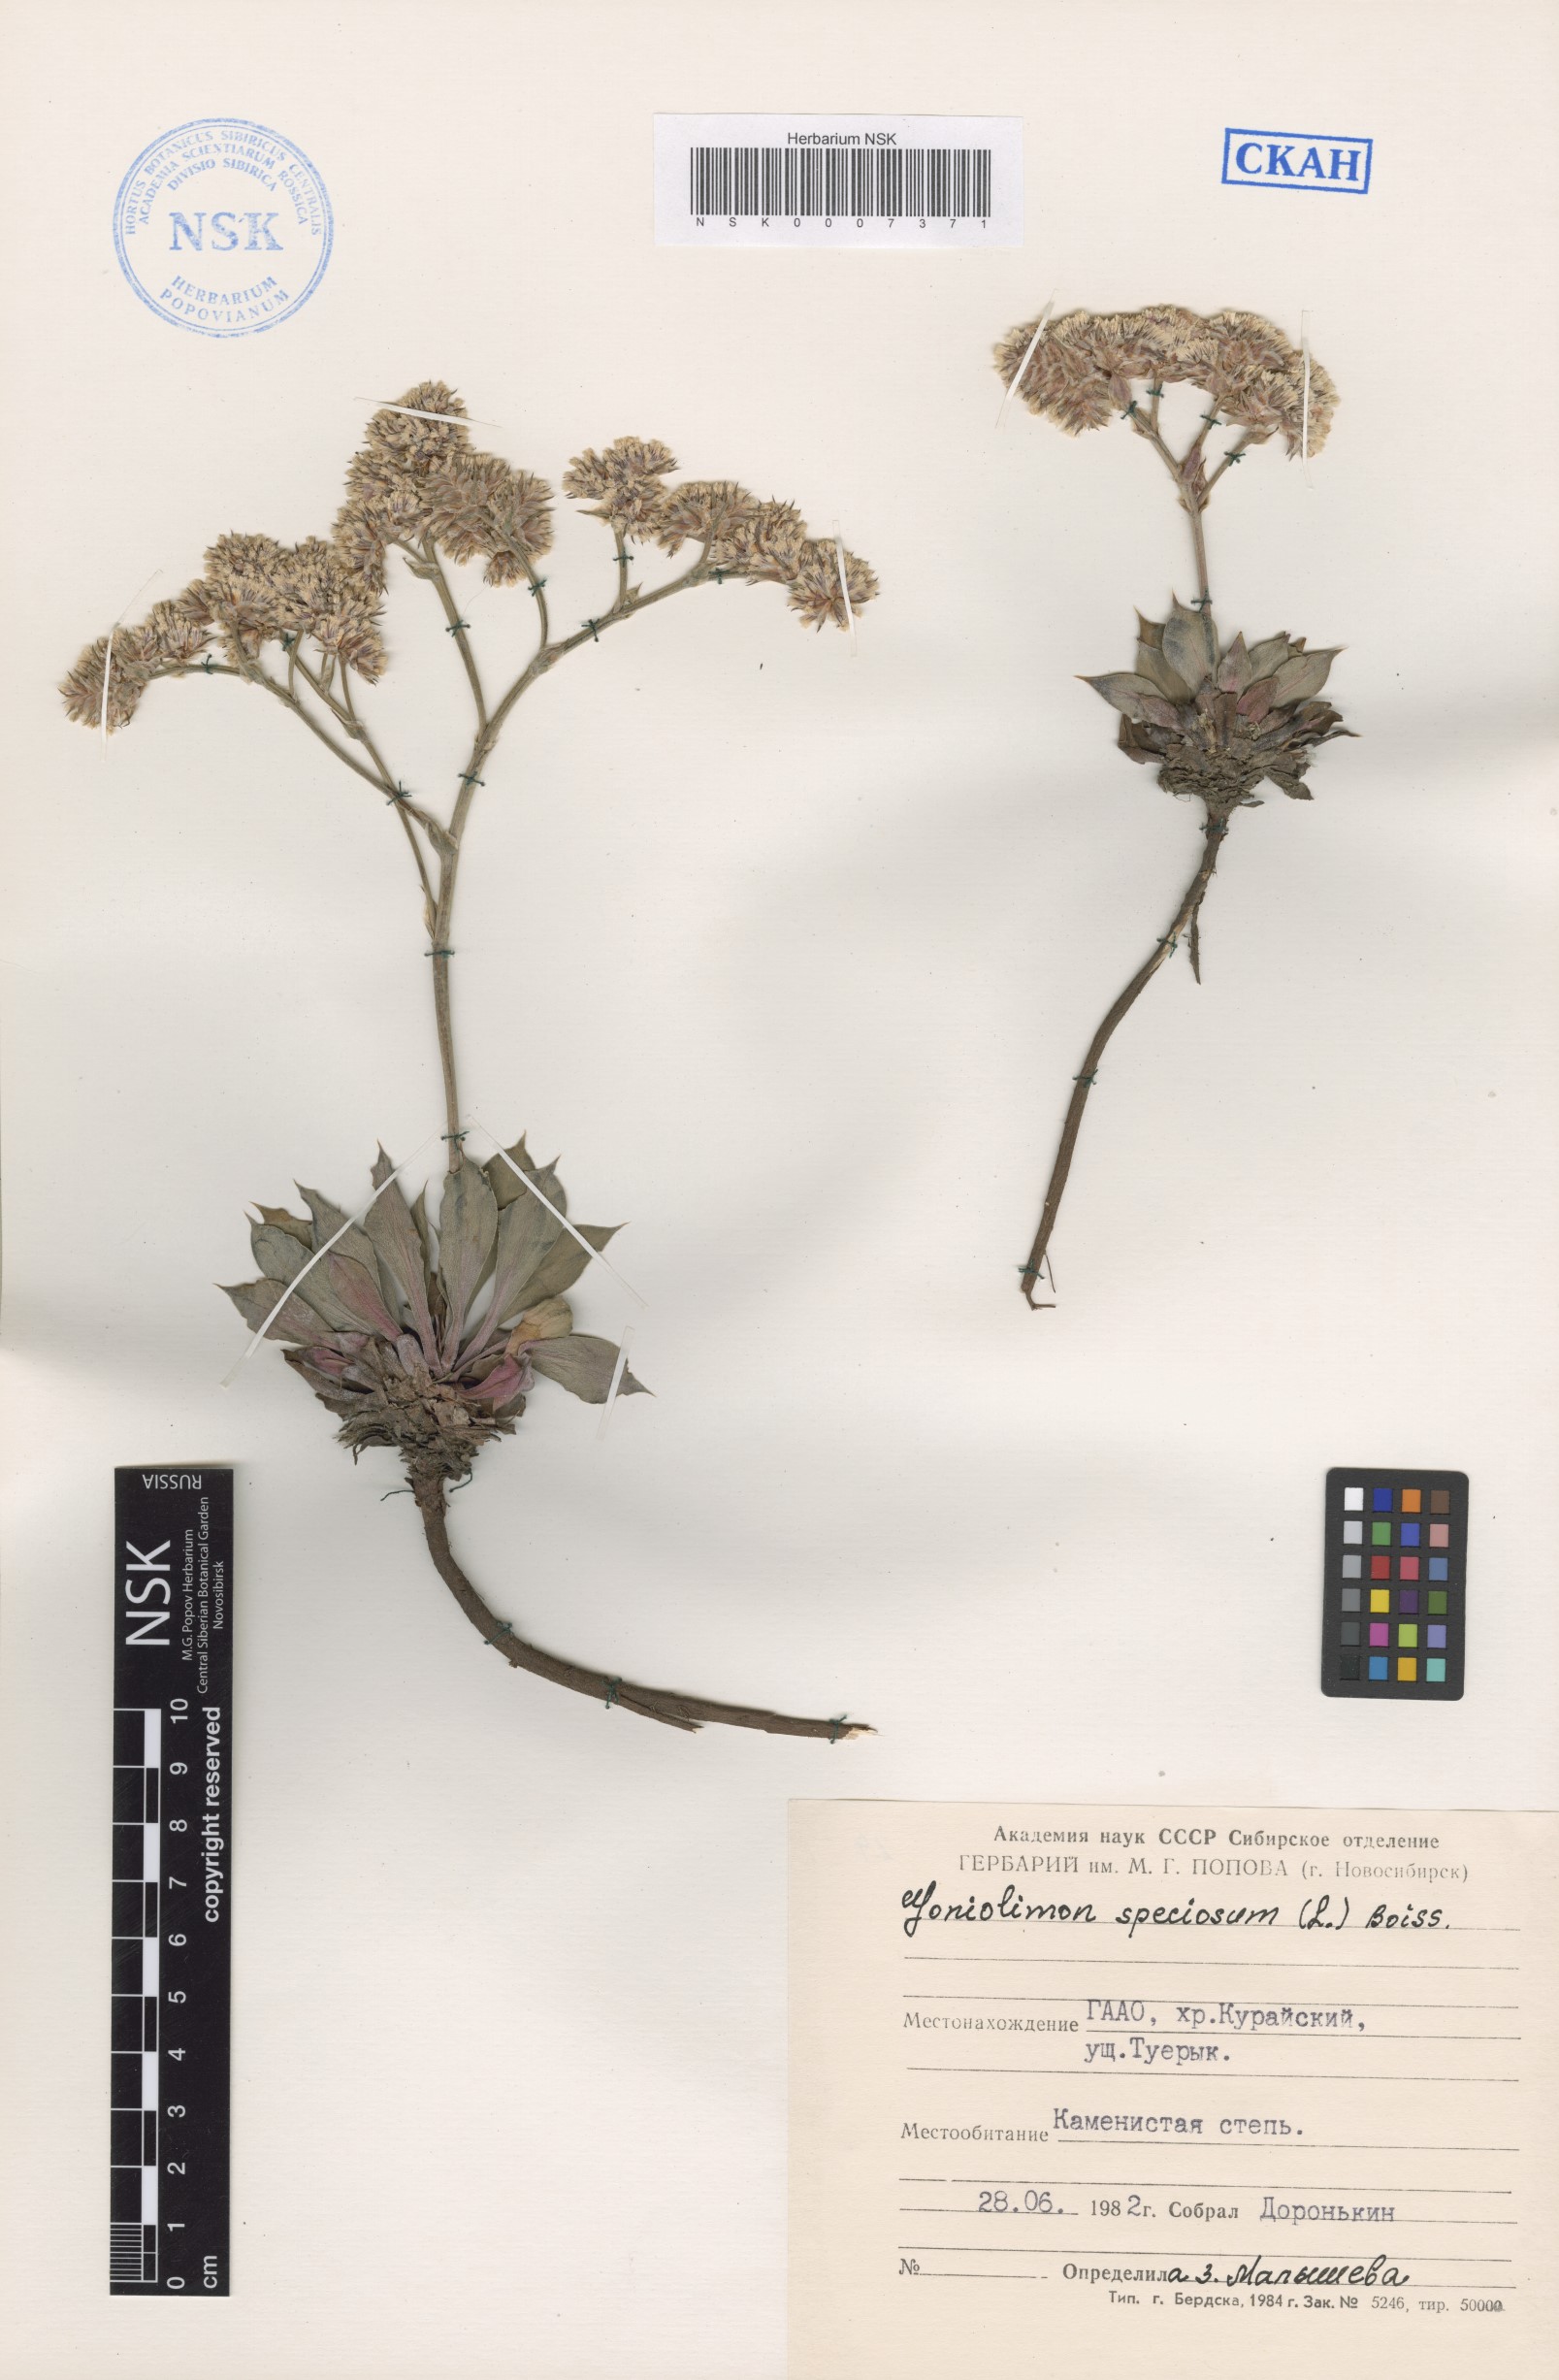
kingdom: Plantae
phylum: Tracheophyta
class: Magnoliopsida
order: Caryophyllales
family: Plumbaginaceae
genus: Goniolimon
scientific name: Goniolimon speciosum
